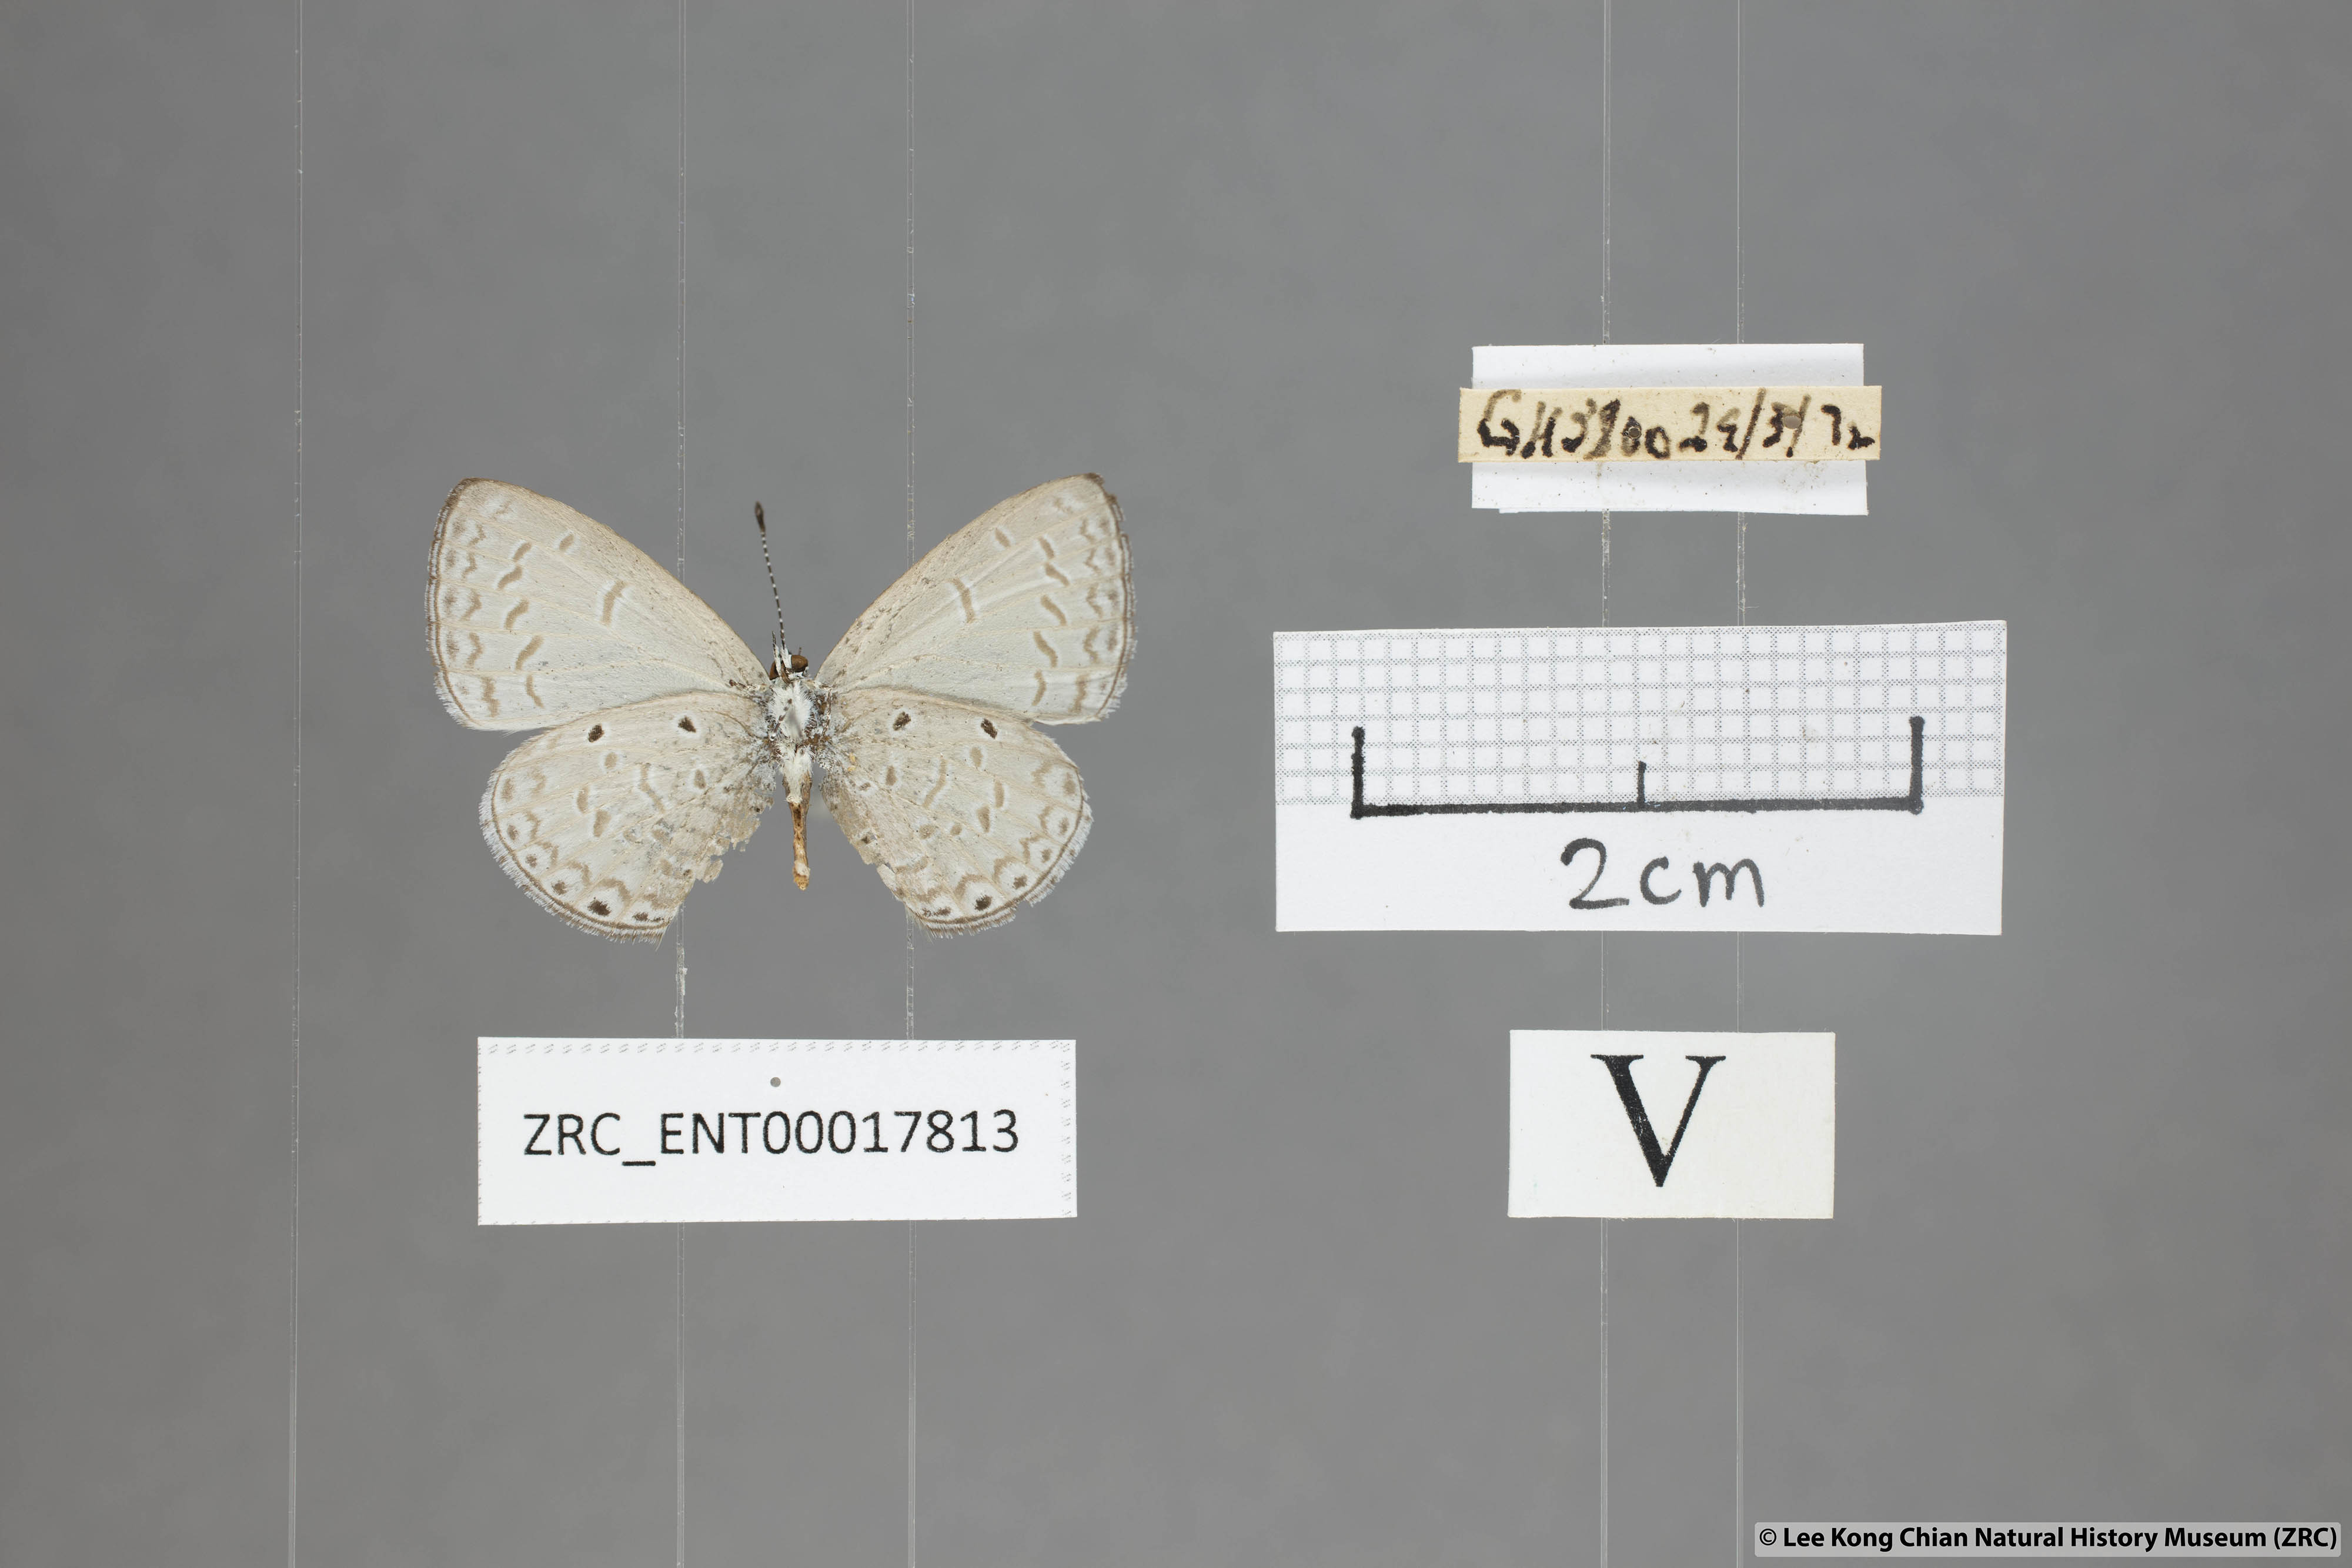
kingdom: Animalia
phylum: Arthropoda
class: Insecta
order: Lepidoptera
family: Lycaenidae
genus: Monodontides
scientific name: Monodontides
